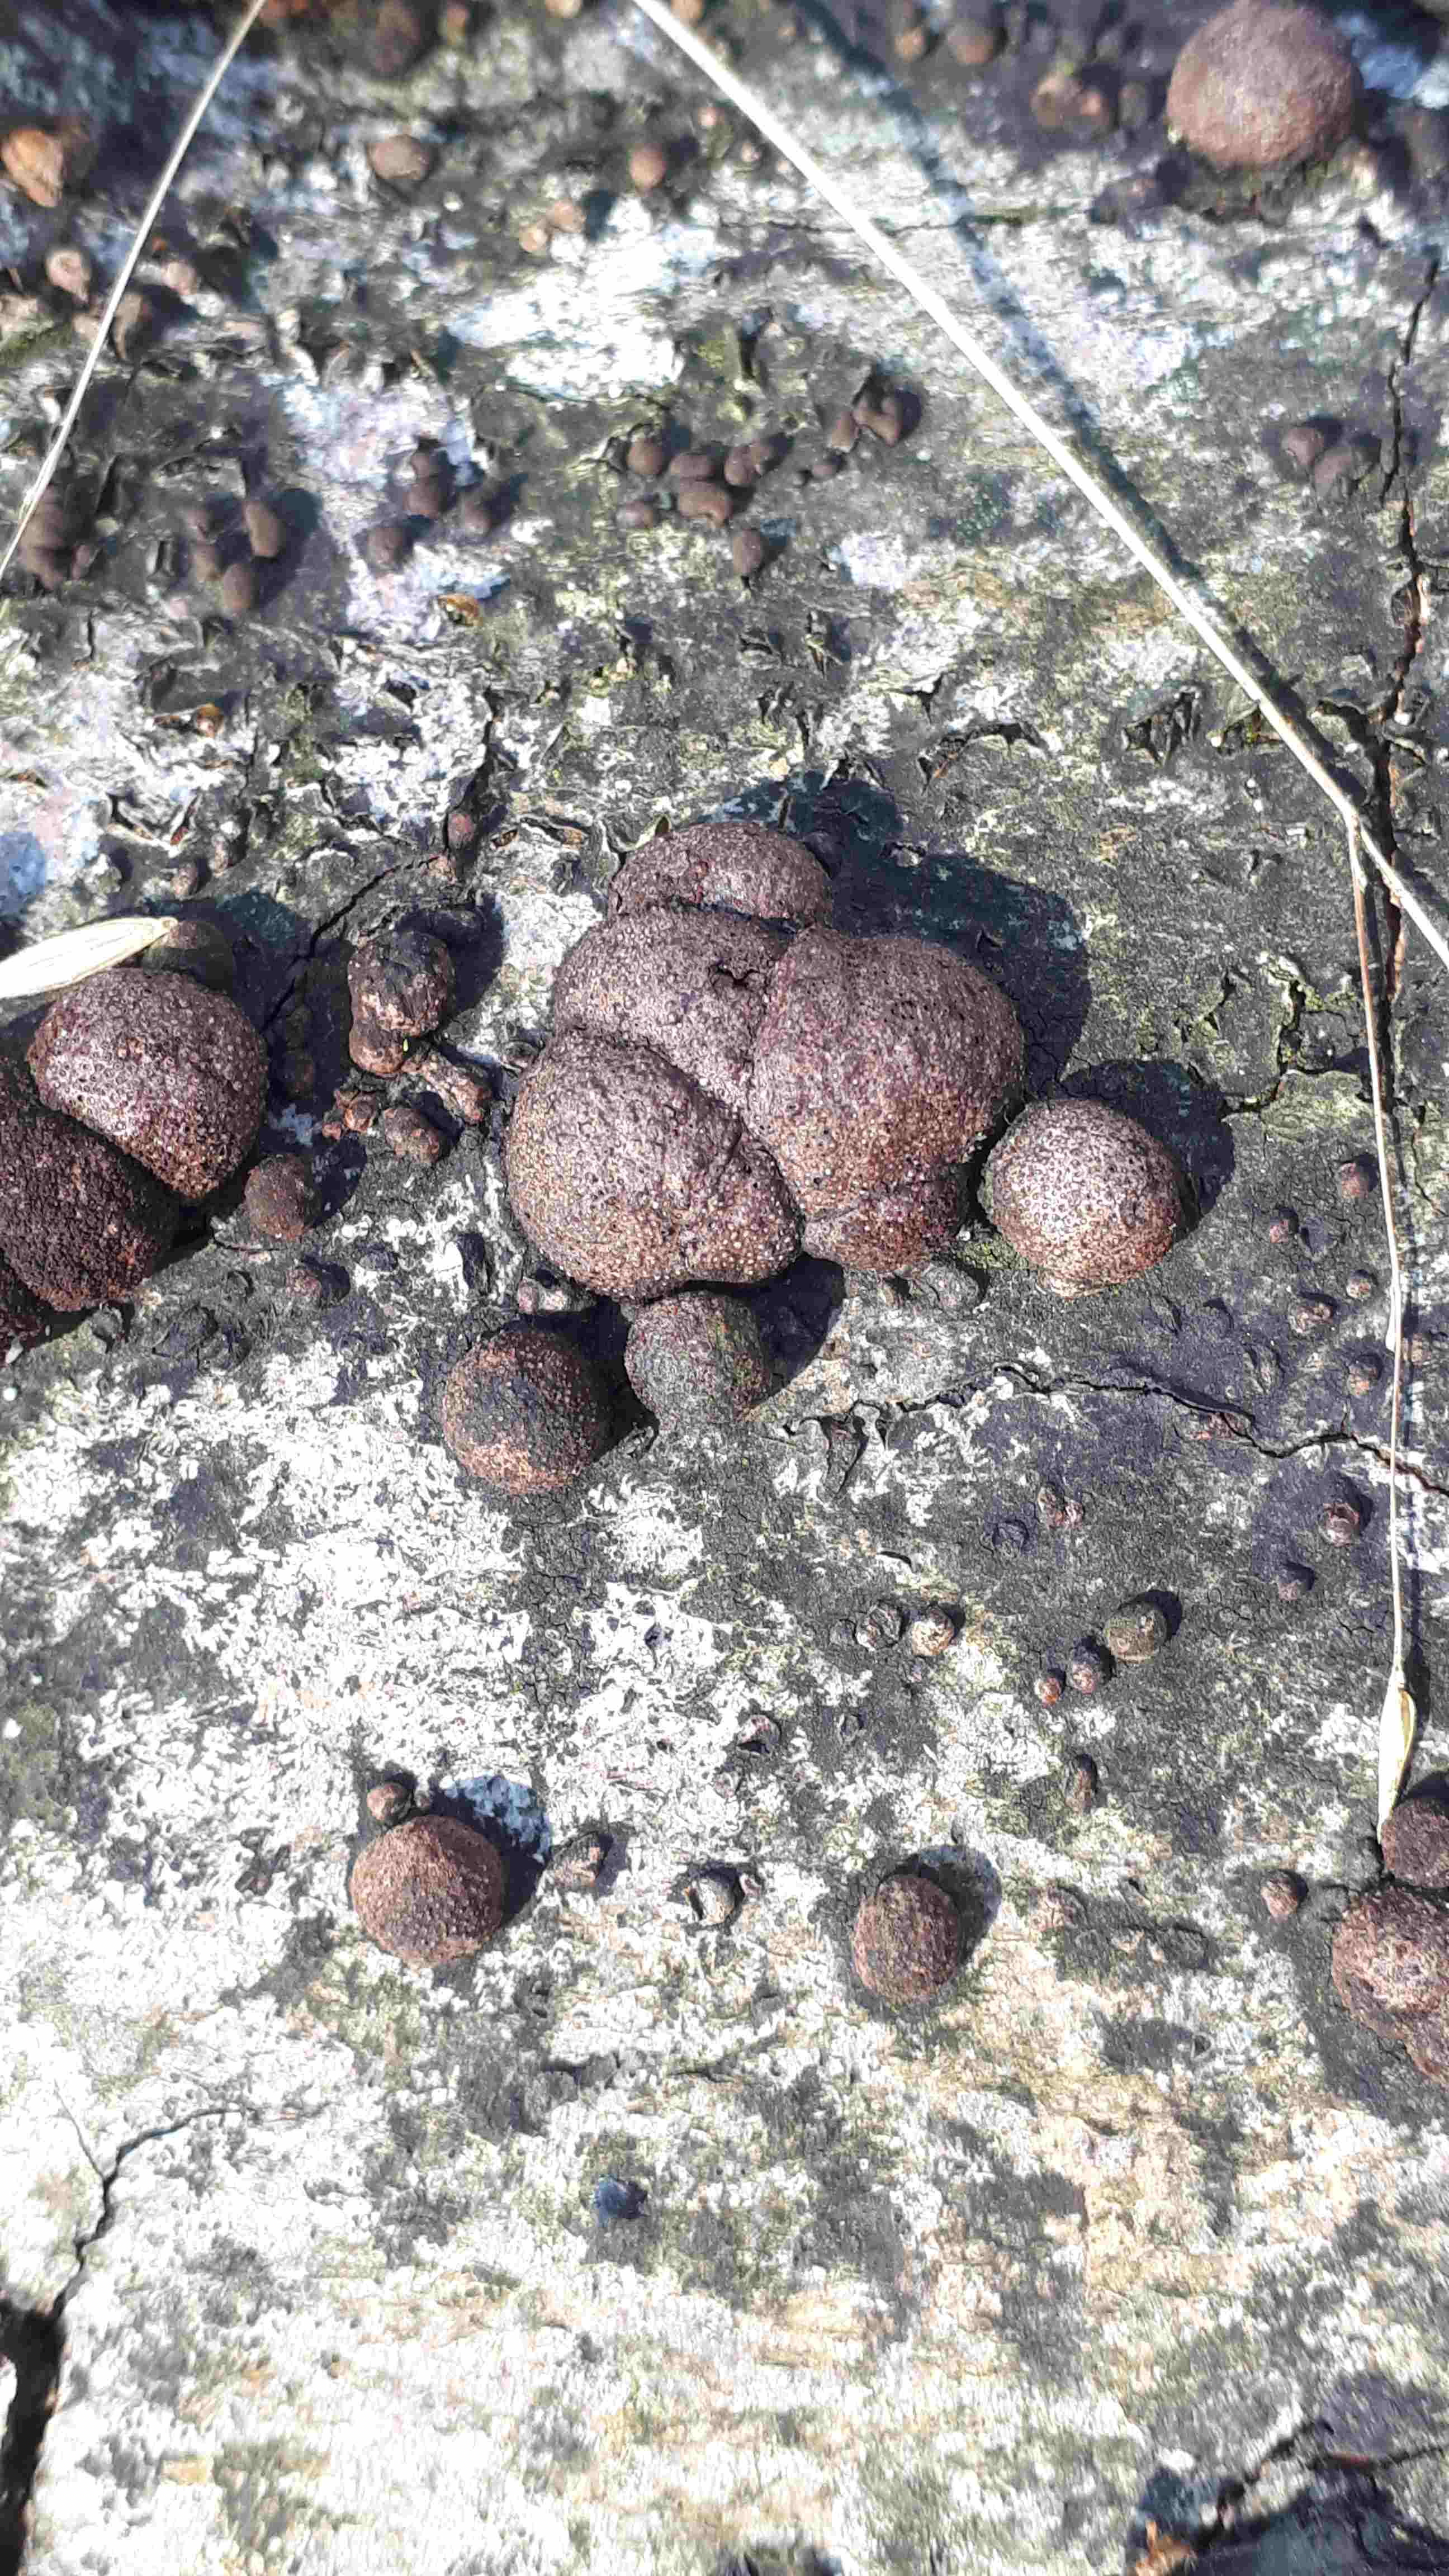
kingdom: Fungi
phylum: Ascomycota
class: Sordariomycetes
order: Xylariales
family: Hypoxylaceae
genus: Hypoxylon
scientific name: Hypoxylon fragiforme
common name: kuljordbær
